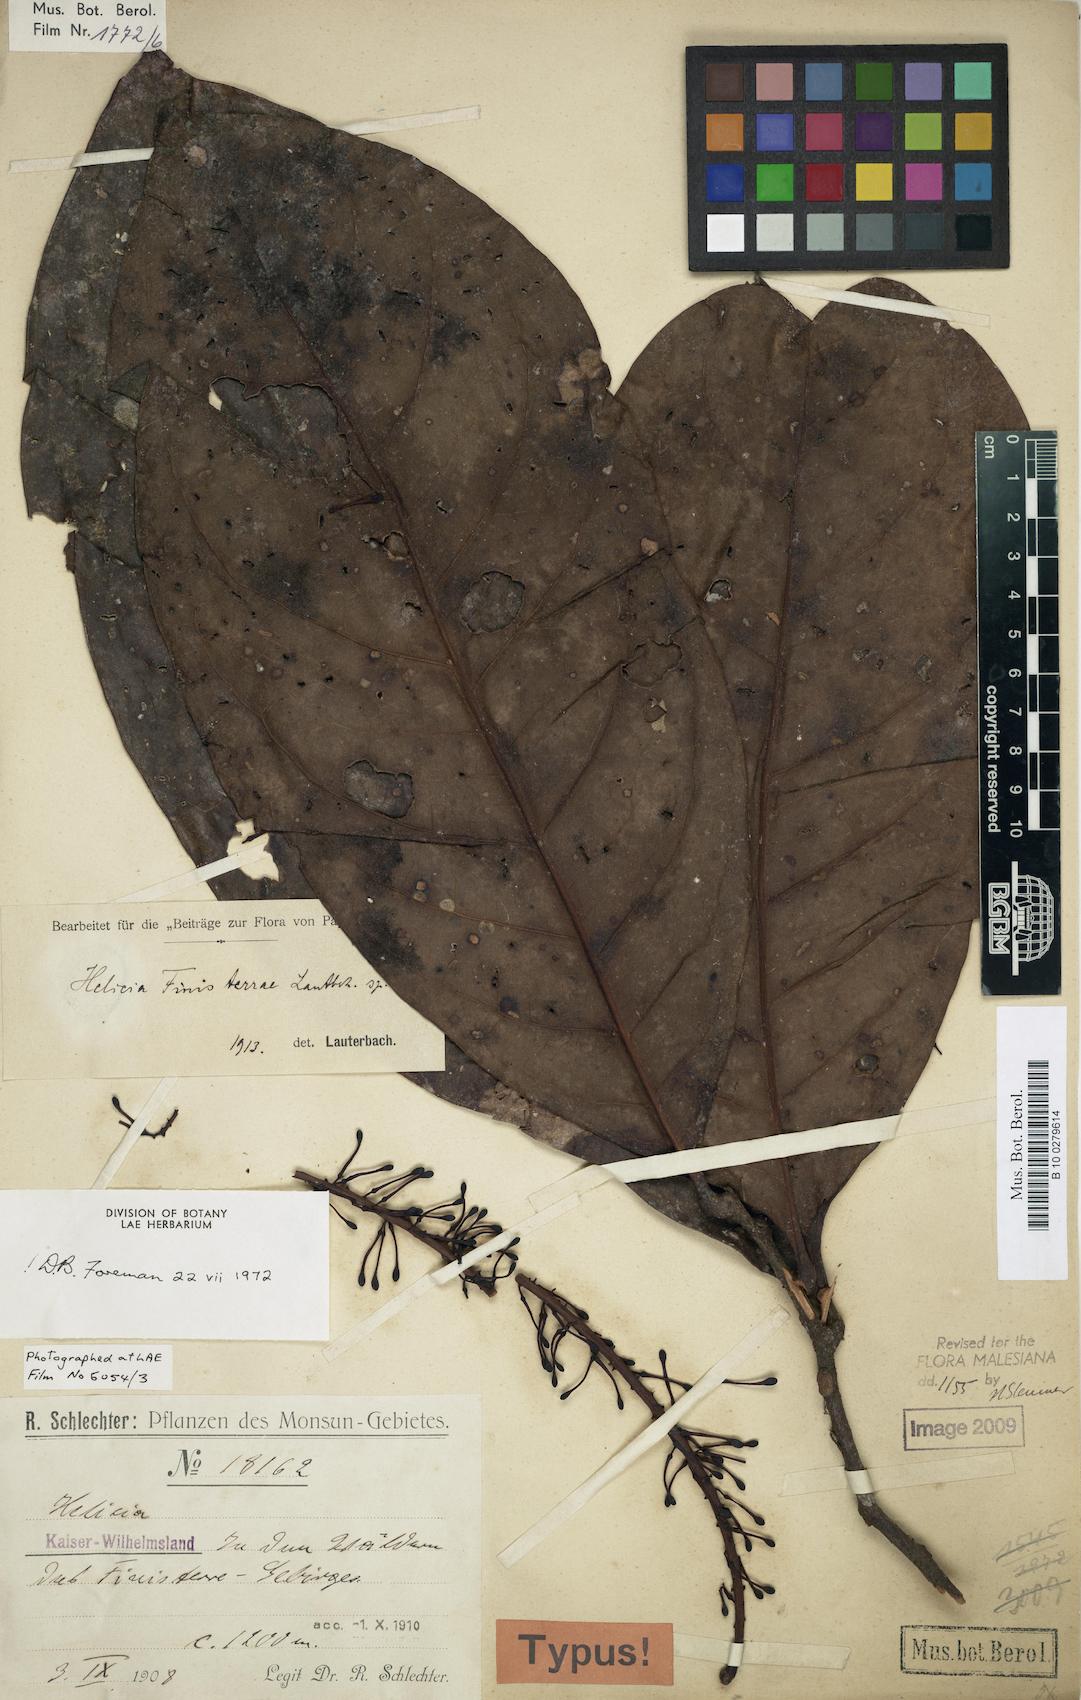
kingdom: Plantae
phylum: Tracheophyta
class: Magnoliopsida
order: Proteales
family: Proteaceae
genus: Helicia
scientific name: Helicia finisterrae
